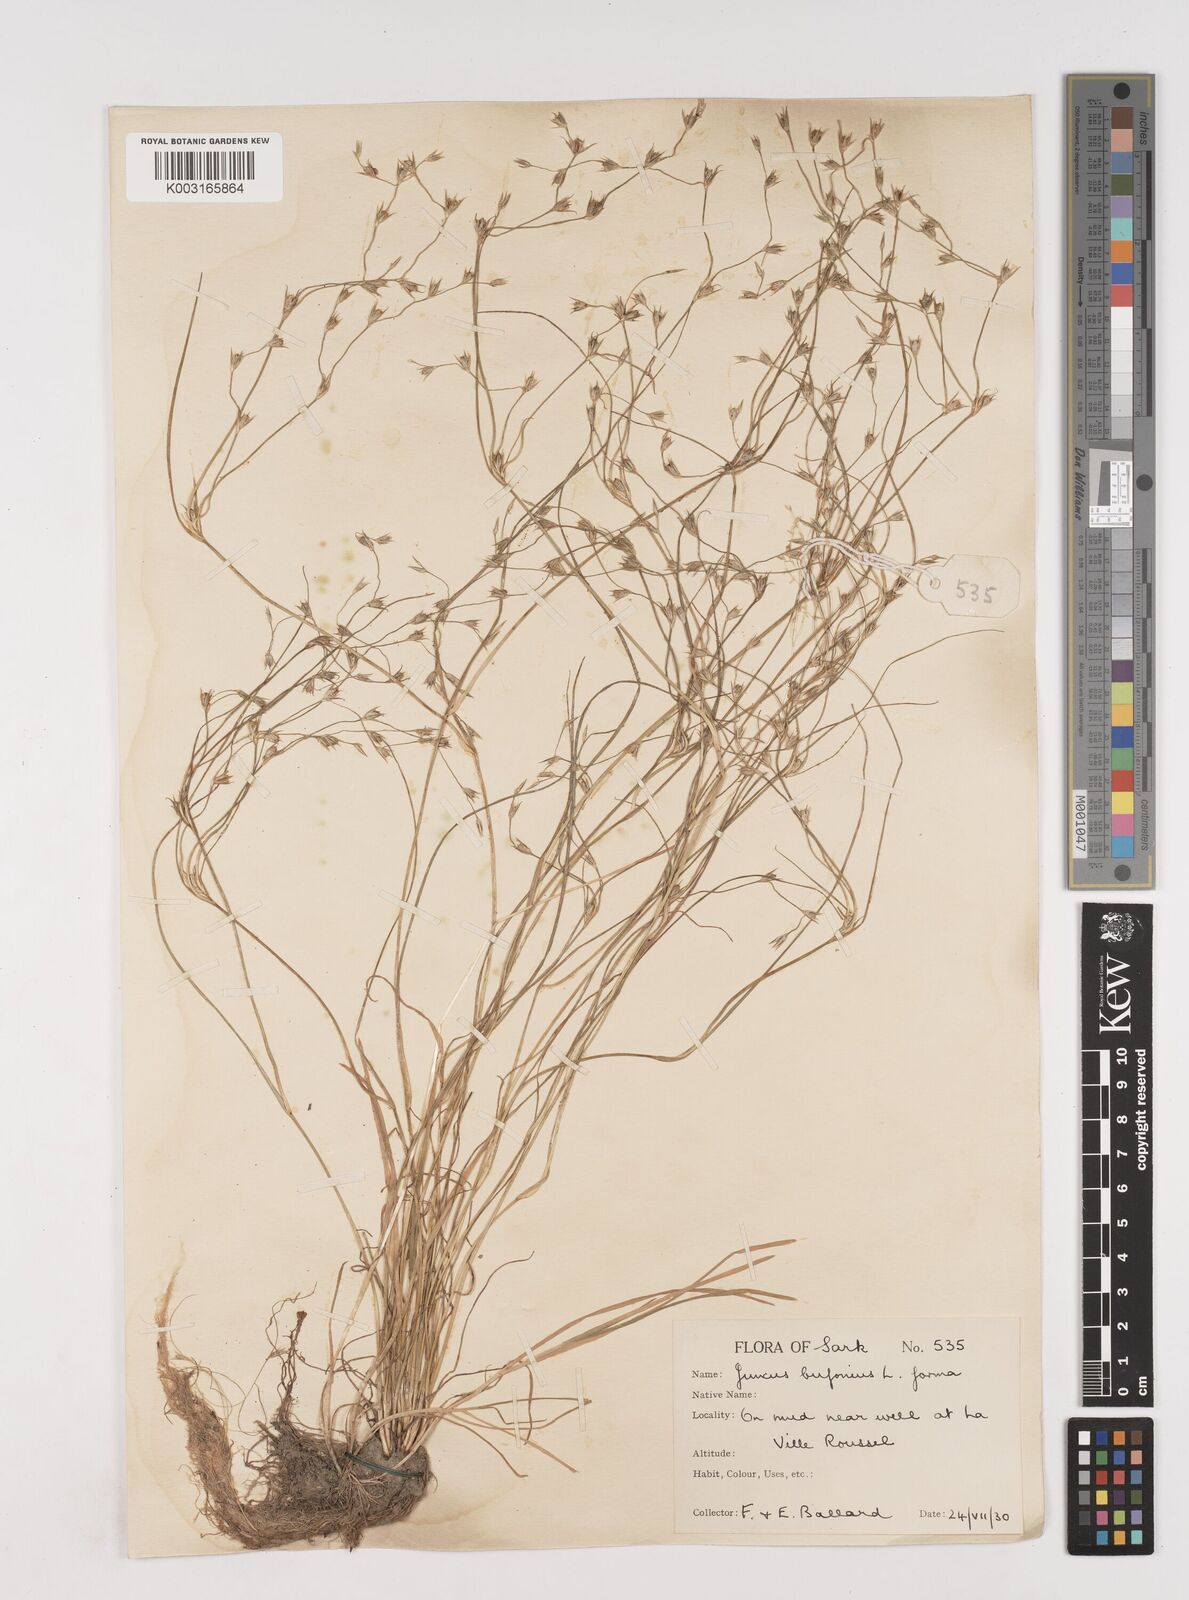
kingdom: Plantae
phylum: Tracheophyta
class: Liliopsida
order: Poales
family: Juncaceae
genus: Juncus
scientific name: Juncus bufonius
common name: Toad rush
